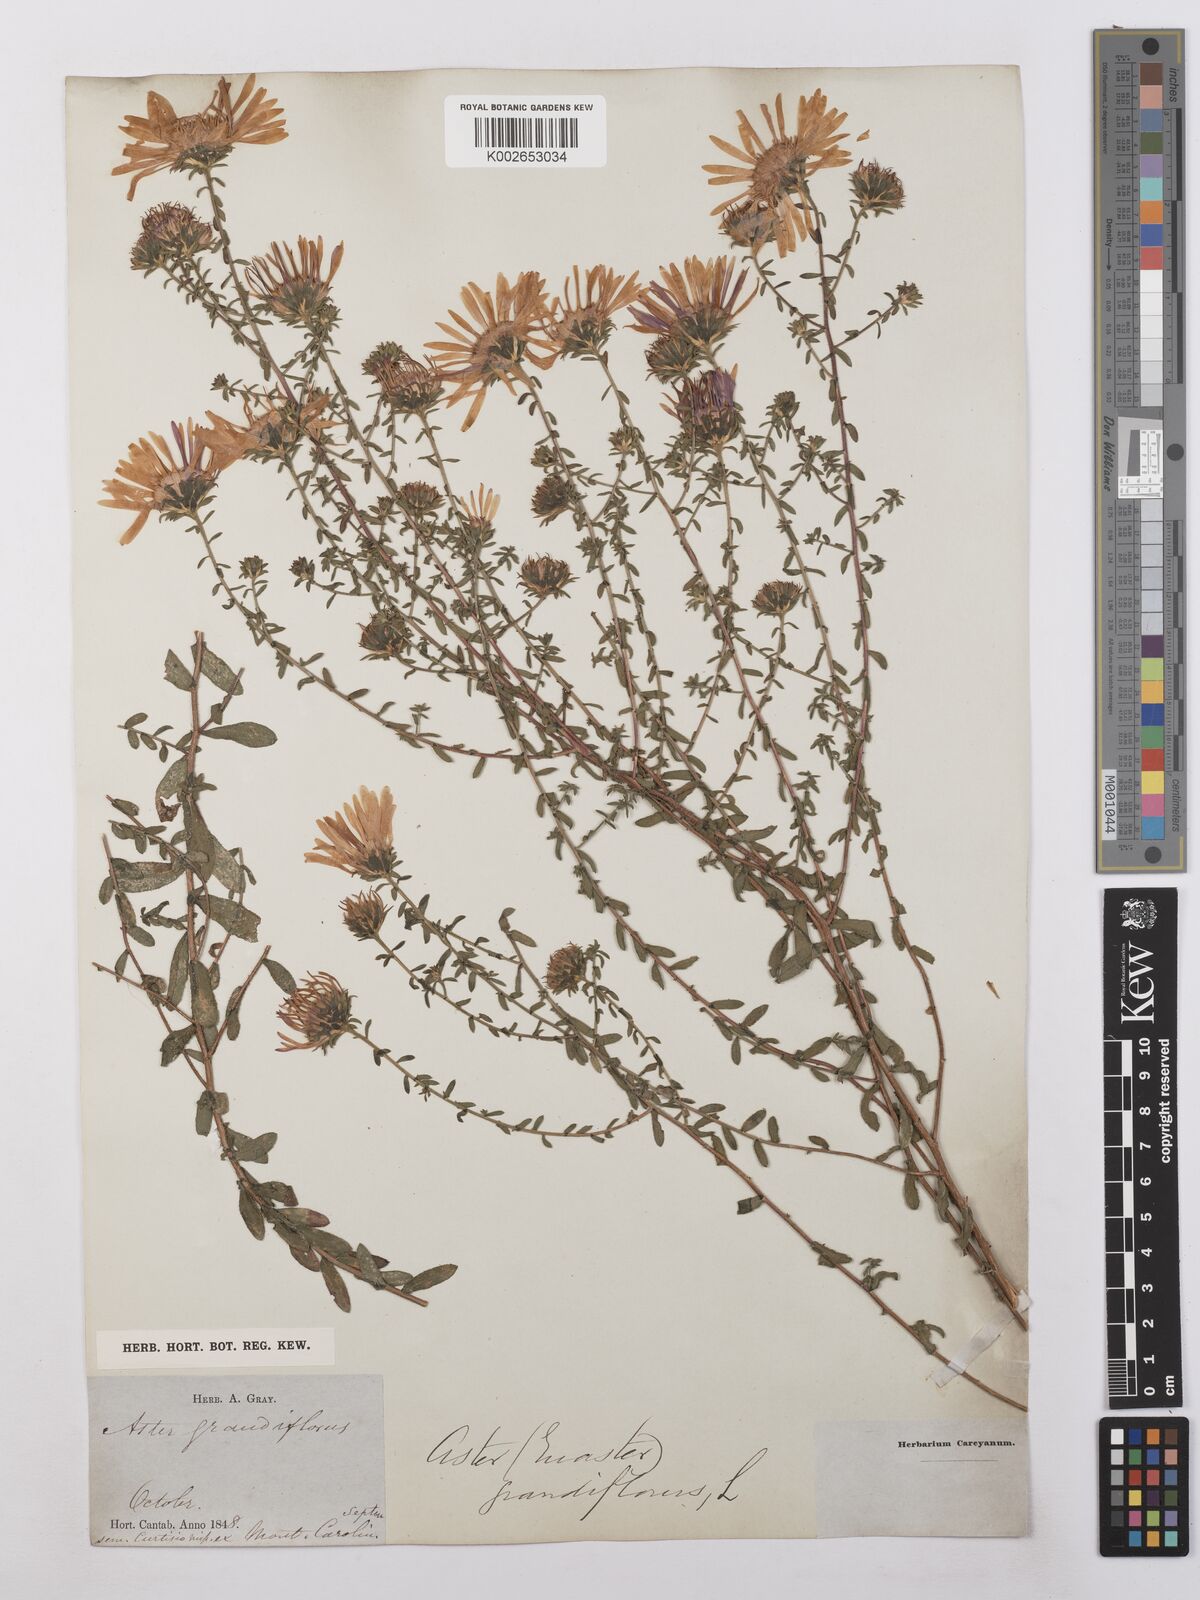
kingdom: Plantae
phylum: Tracheophyta
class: Magnoliopsida
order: Asterales
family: Asteraceae
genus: Symphyotrichum
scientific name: Symphyotrichum grandiflorum
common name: Big-head aster
